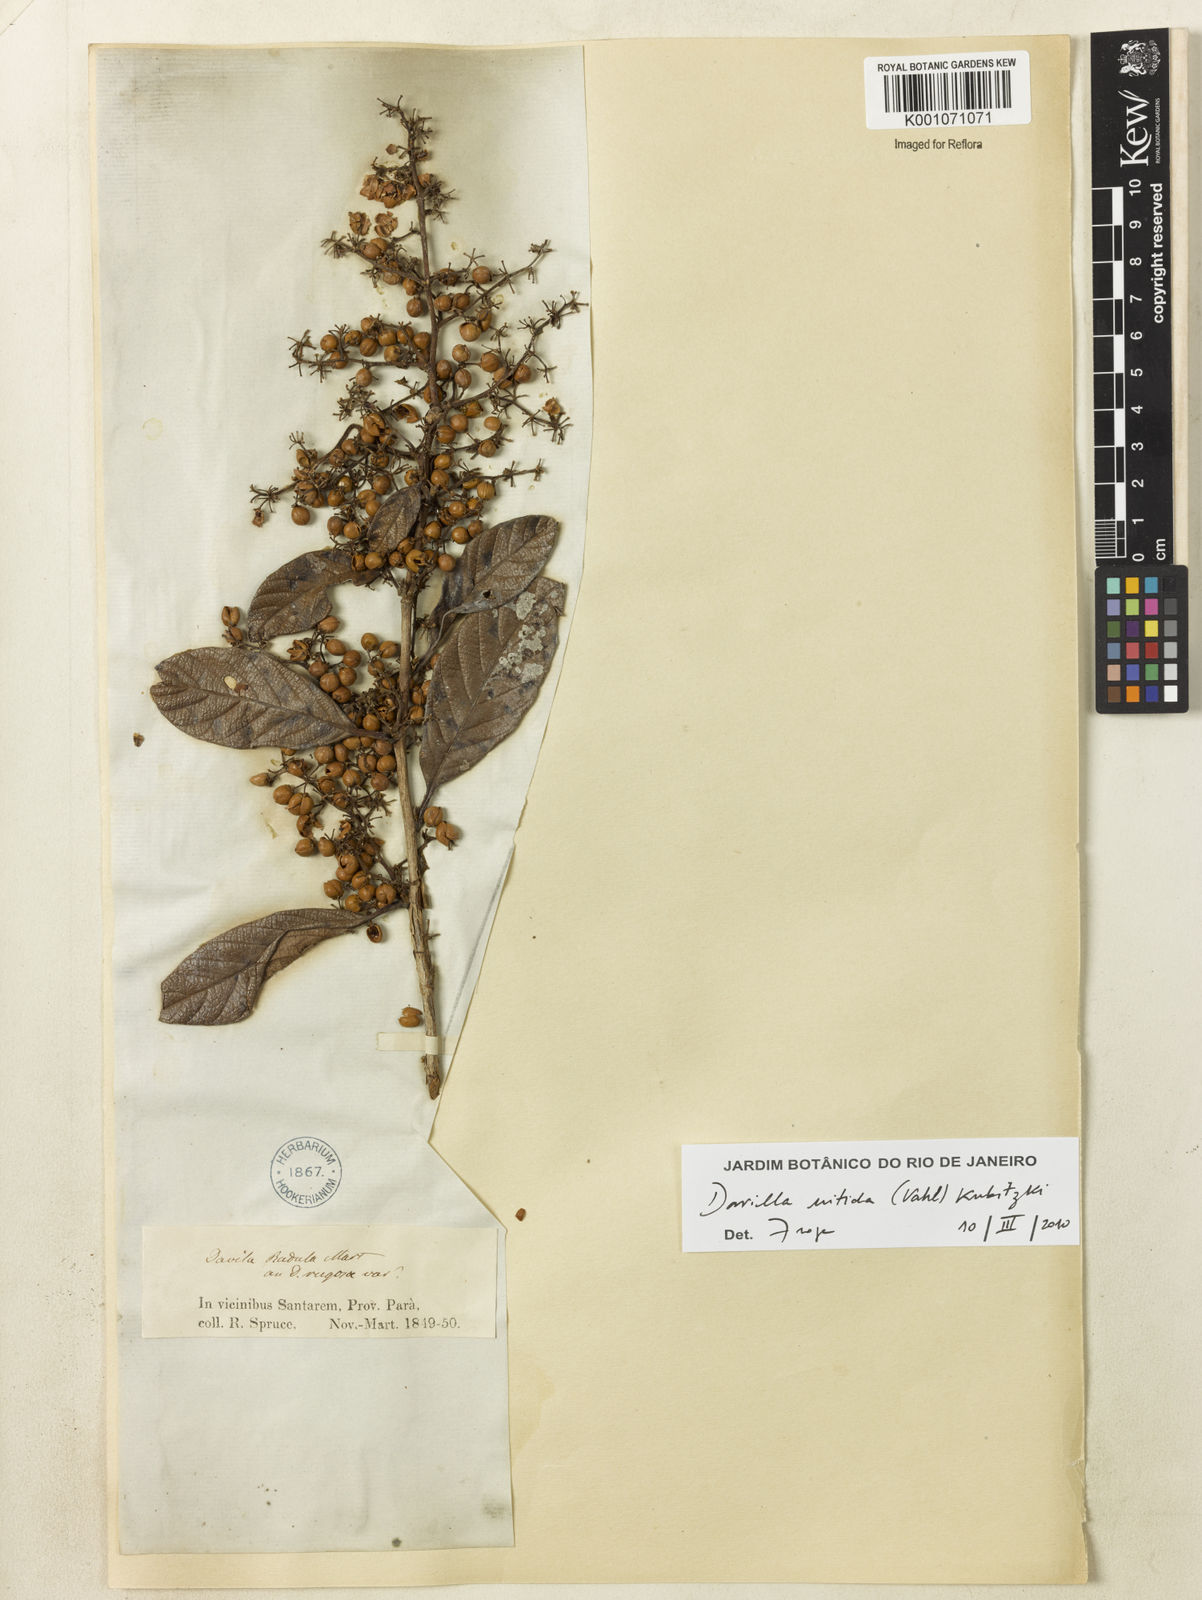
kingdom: Plantae
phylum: Tracheophyta
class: Magnoliopsida
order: Dilleniales
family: Dilleniaceae
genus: Davilla
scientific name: Davilla kunthii
